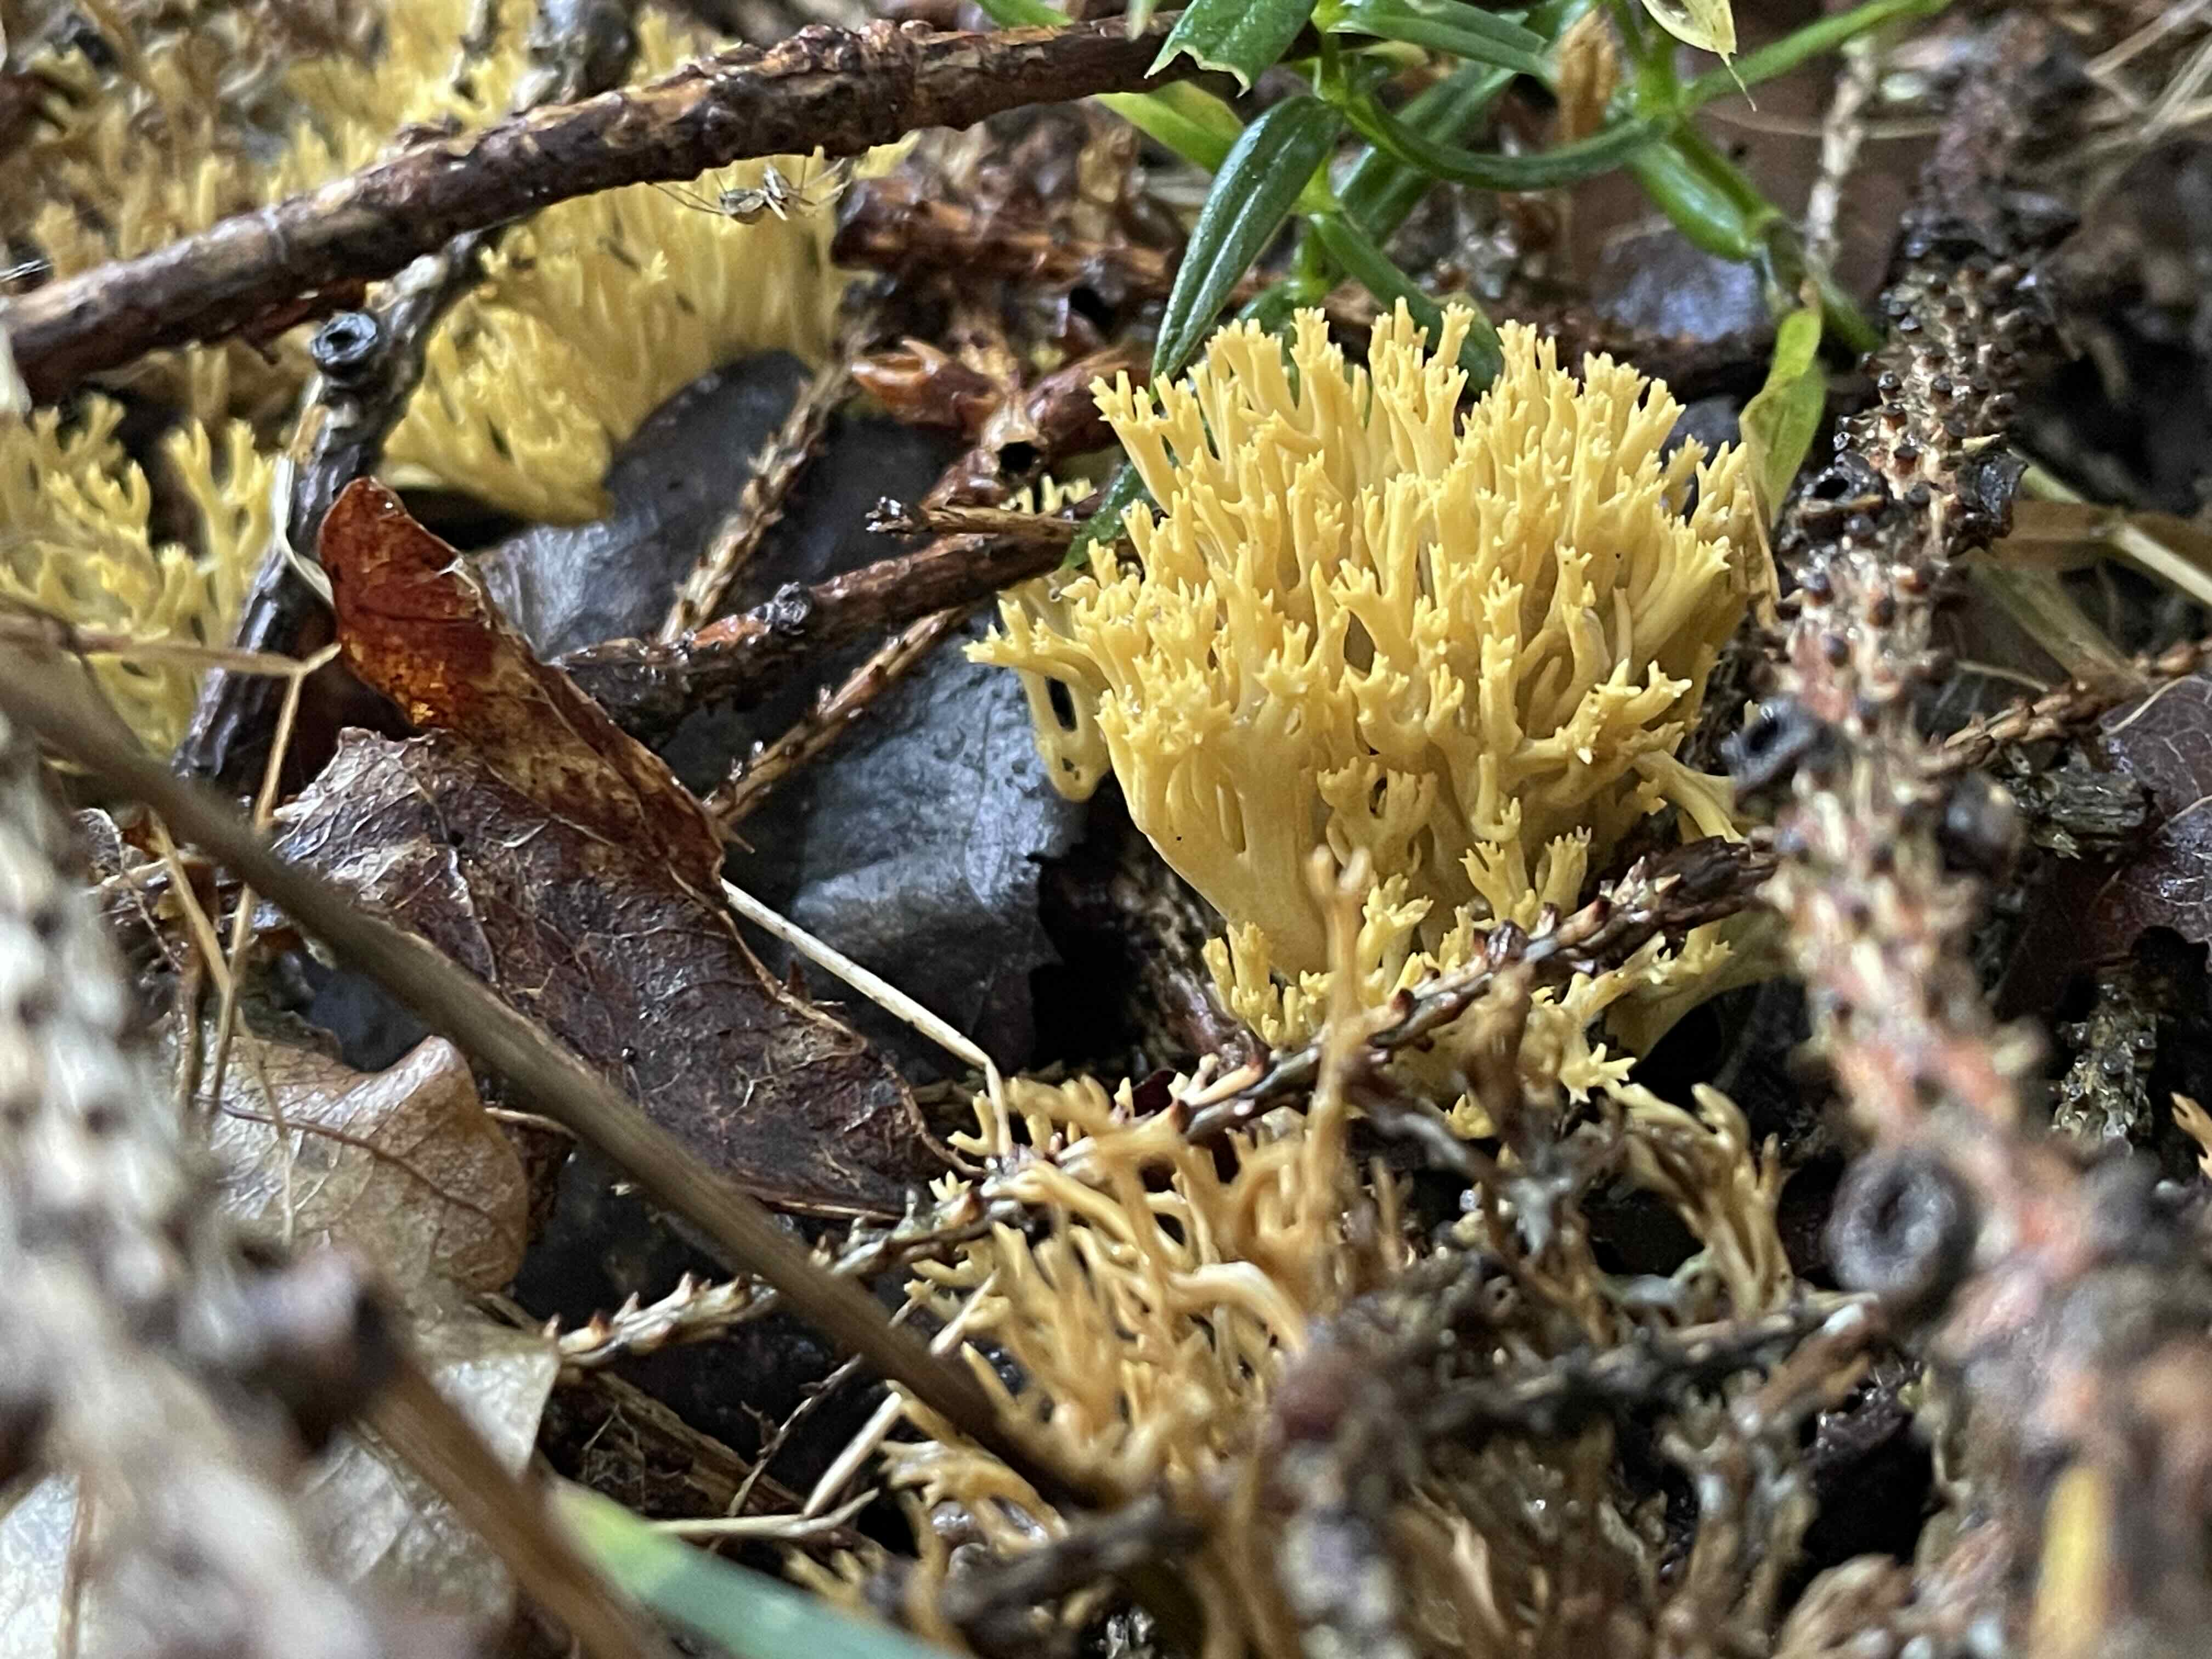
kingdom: Fungi
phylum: Basidiomycota
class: Agaricomycetes
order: Gomphales
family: Gomphaceae
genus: Phaeoclavulina
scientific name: Phaeoclavulina eumorpha
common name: gran-koralsvamp
